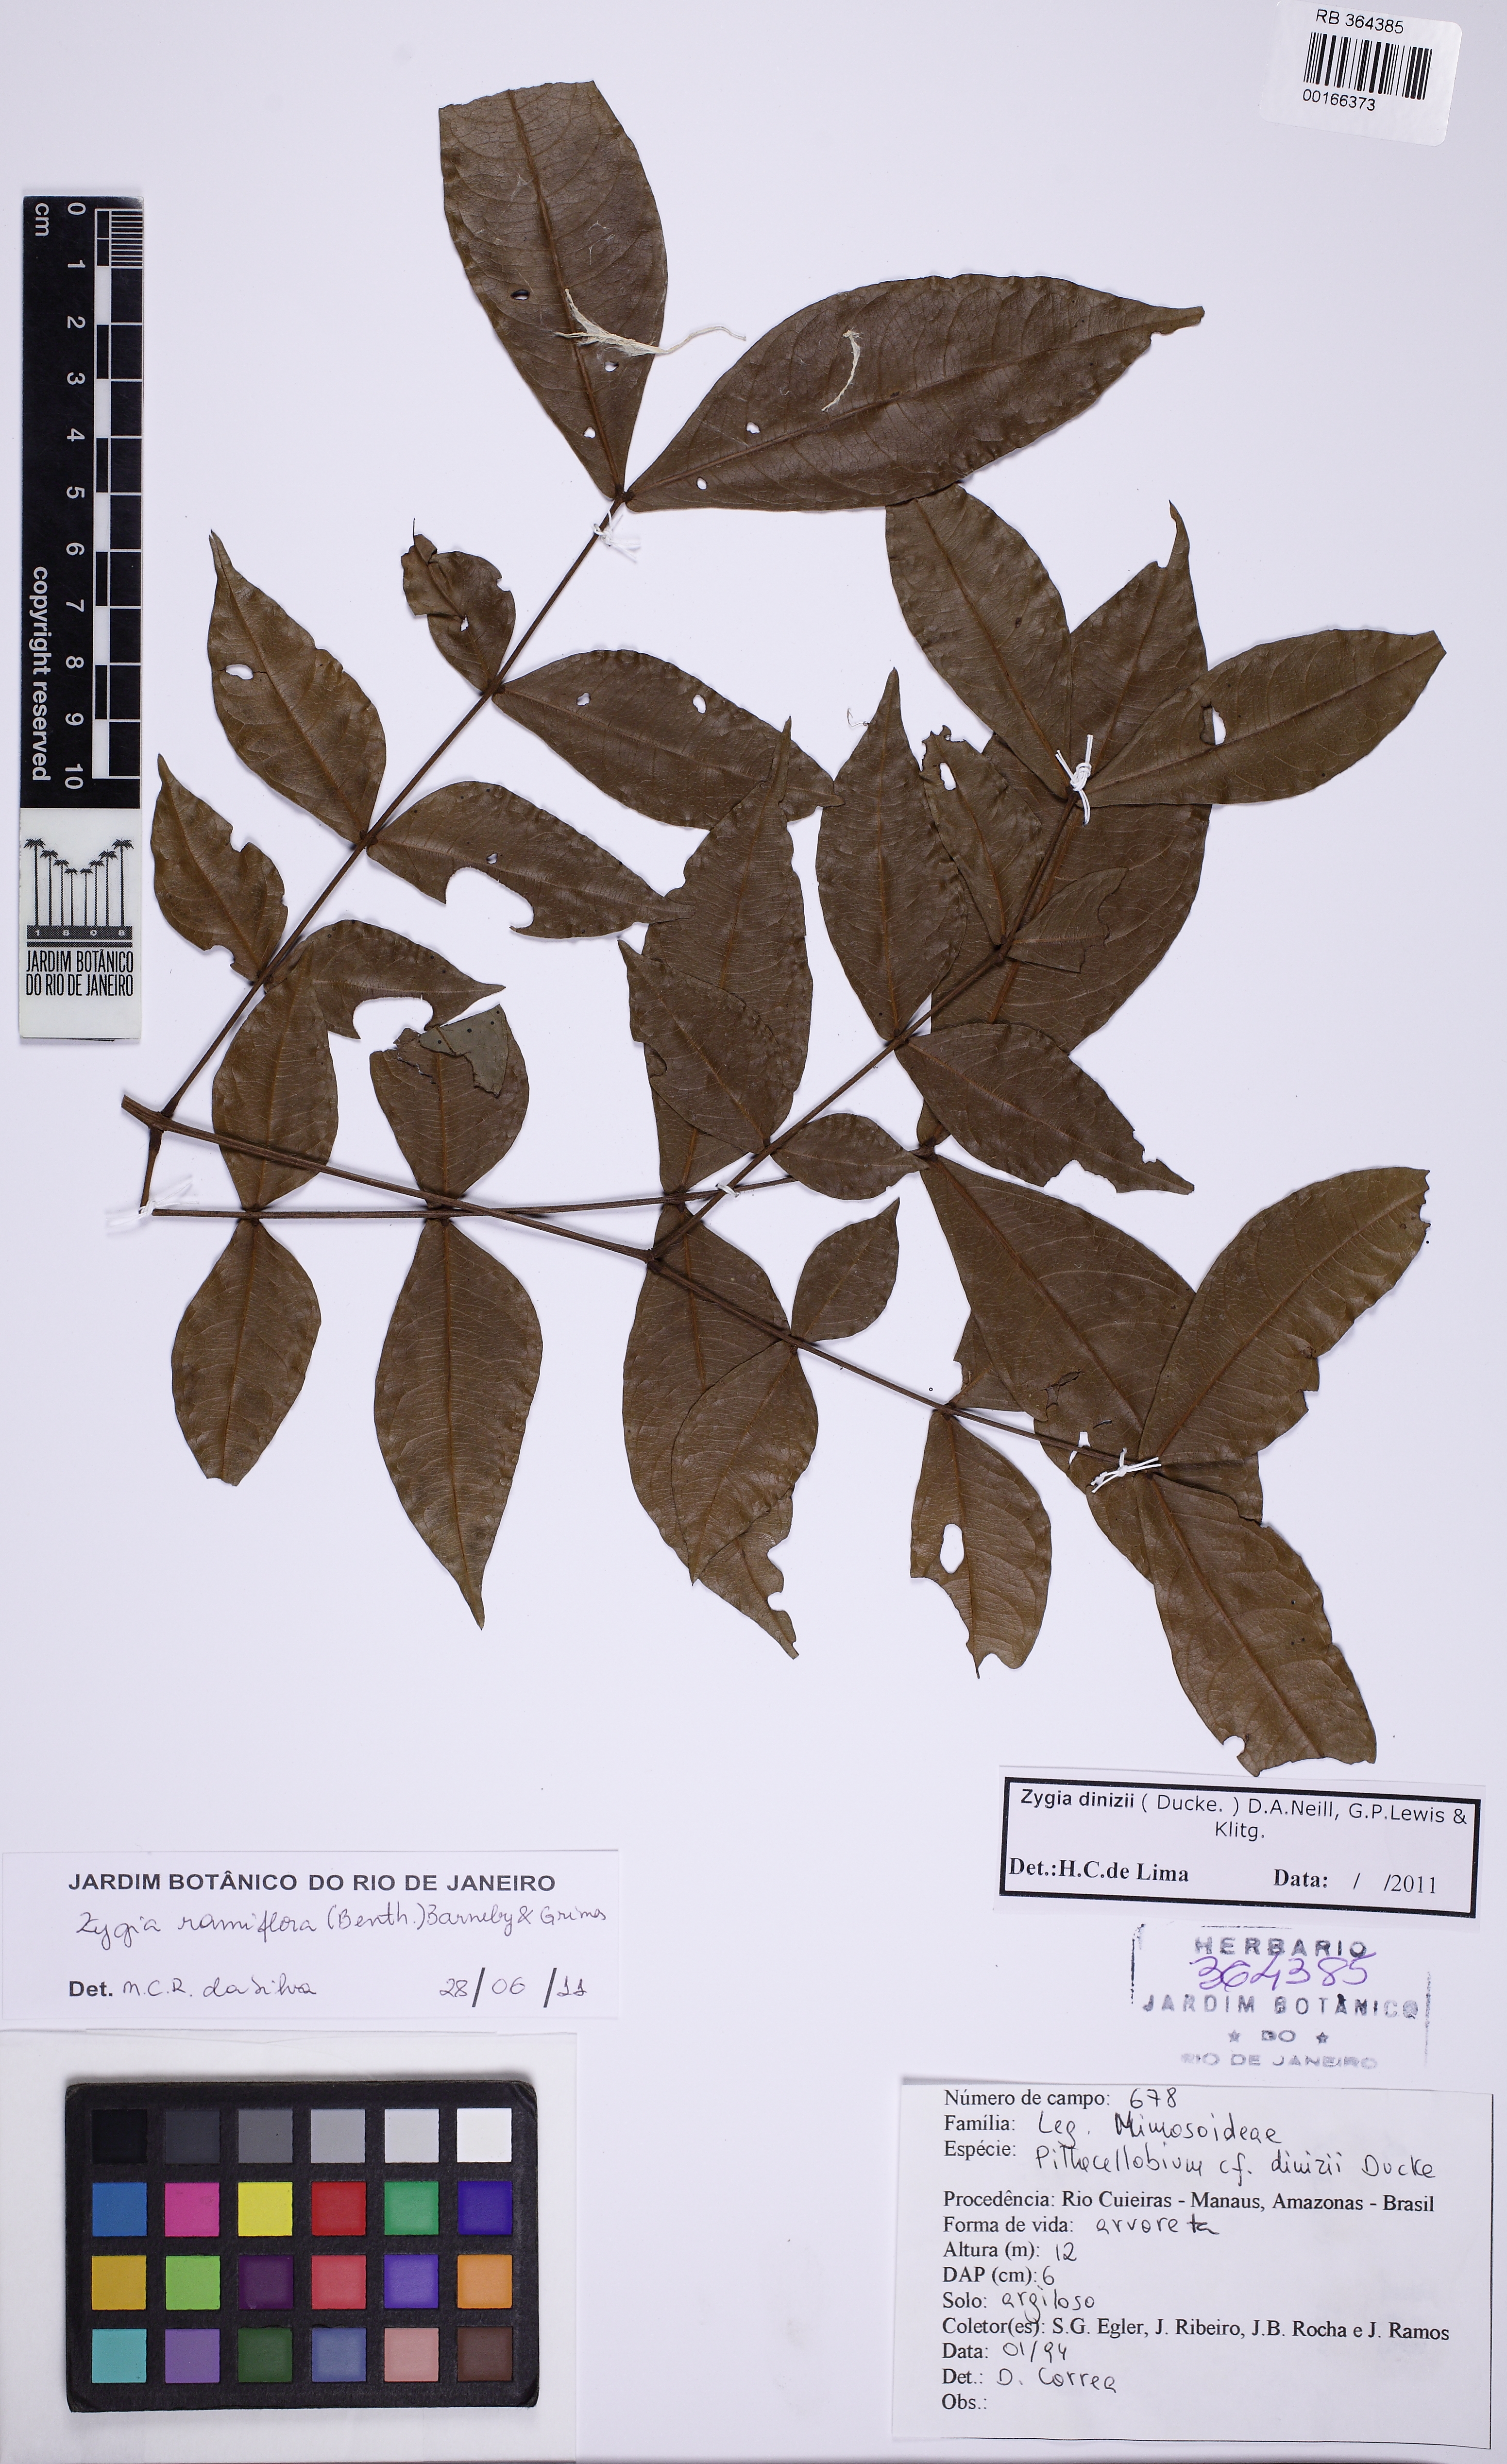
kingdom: Plantae
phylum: Tracheophyta
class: Magnoliopsida
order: Fabales
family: Fabaceae
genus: Zygia
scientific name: Zygia dinizii
